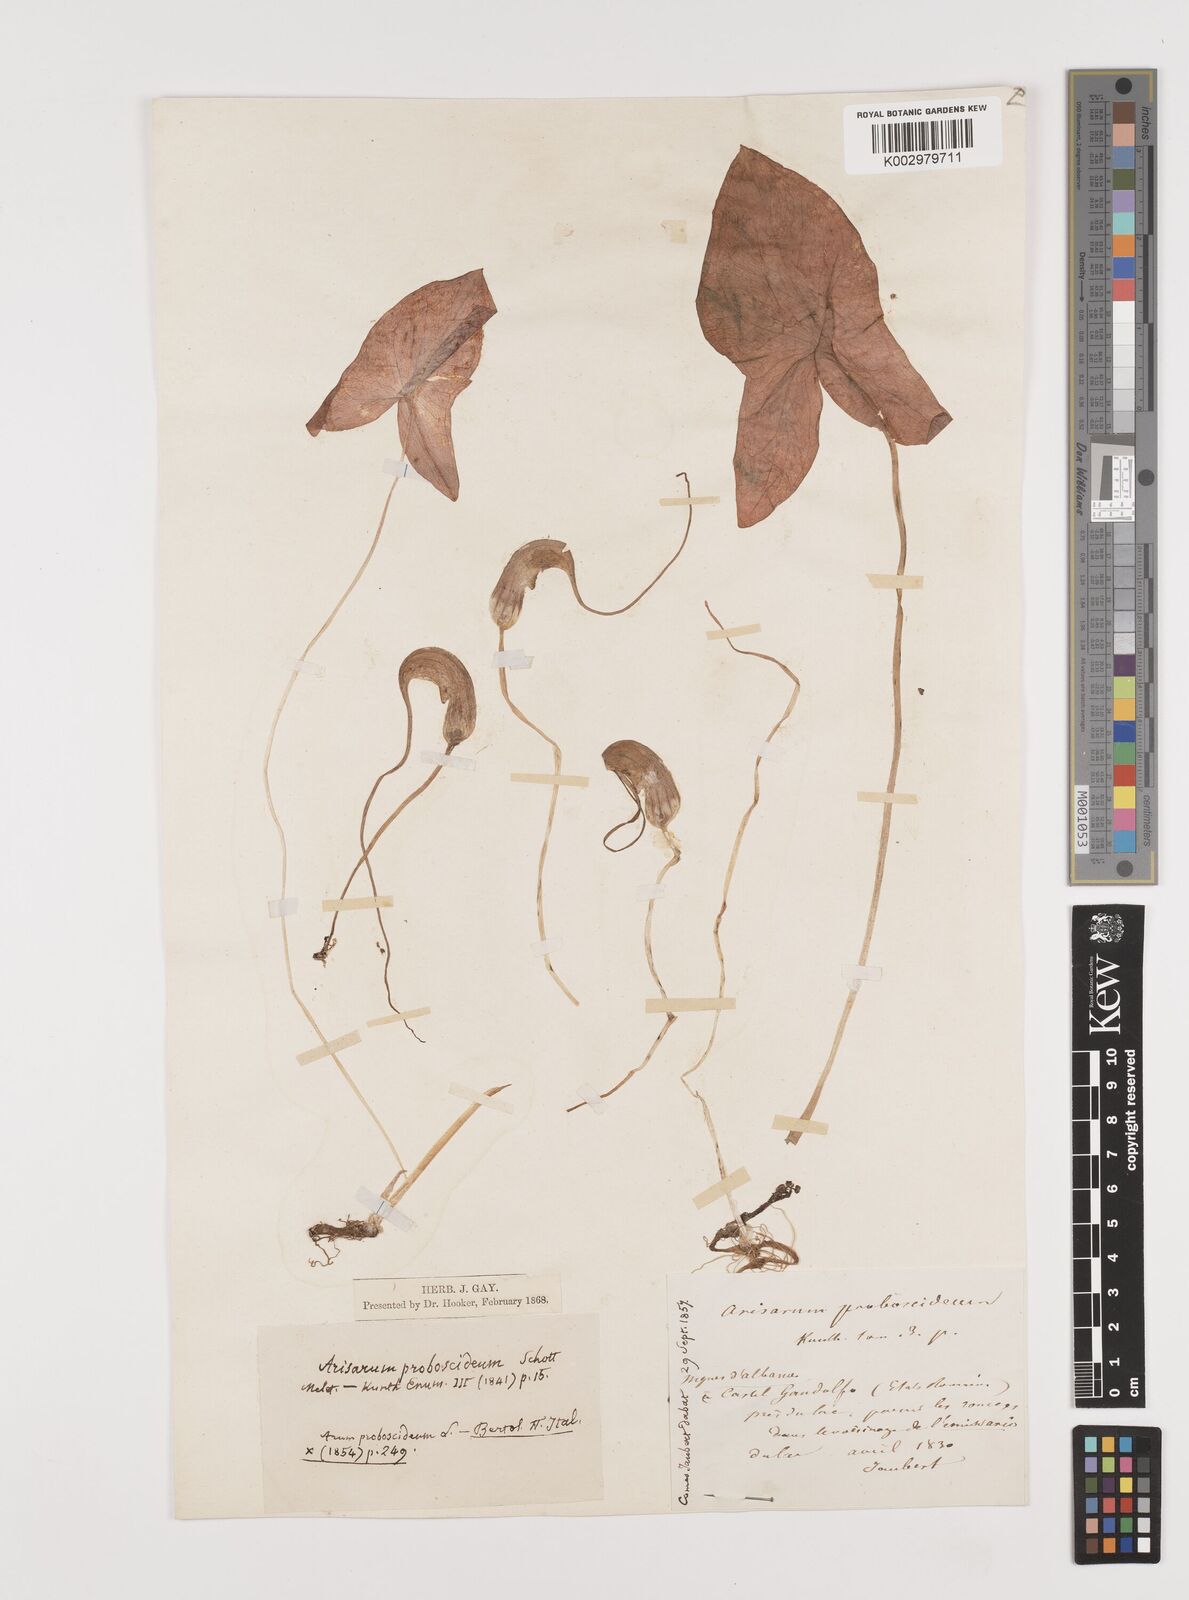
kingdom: Plantae
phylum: Tracheophyta
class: Liliopsida
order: Alismatales
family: Araceae
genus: Arisarum
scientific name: Arisarum proboscideum
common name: Mousetailplant
